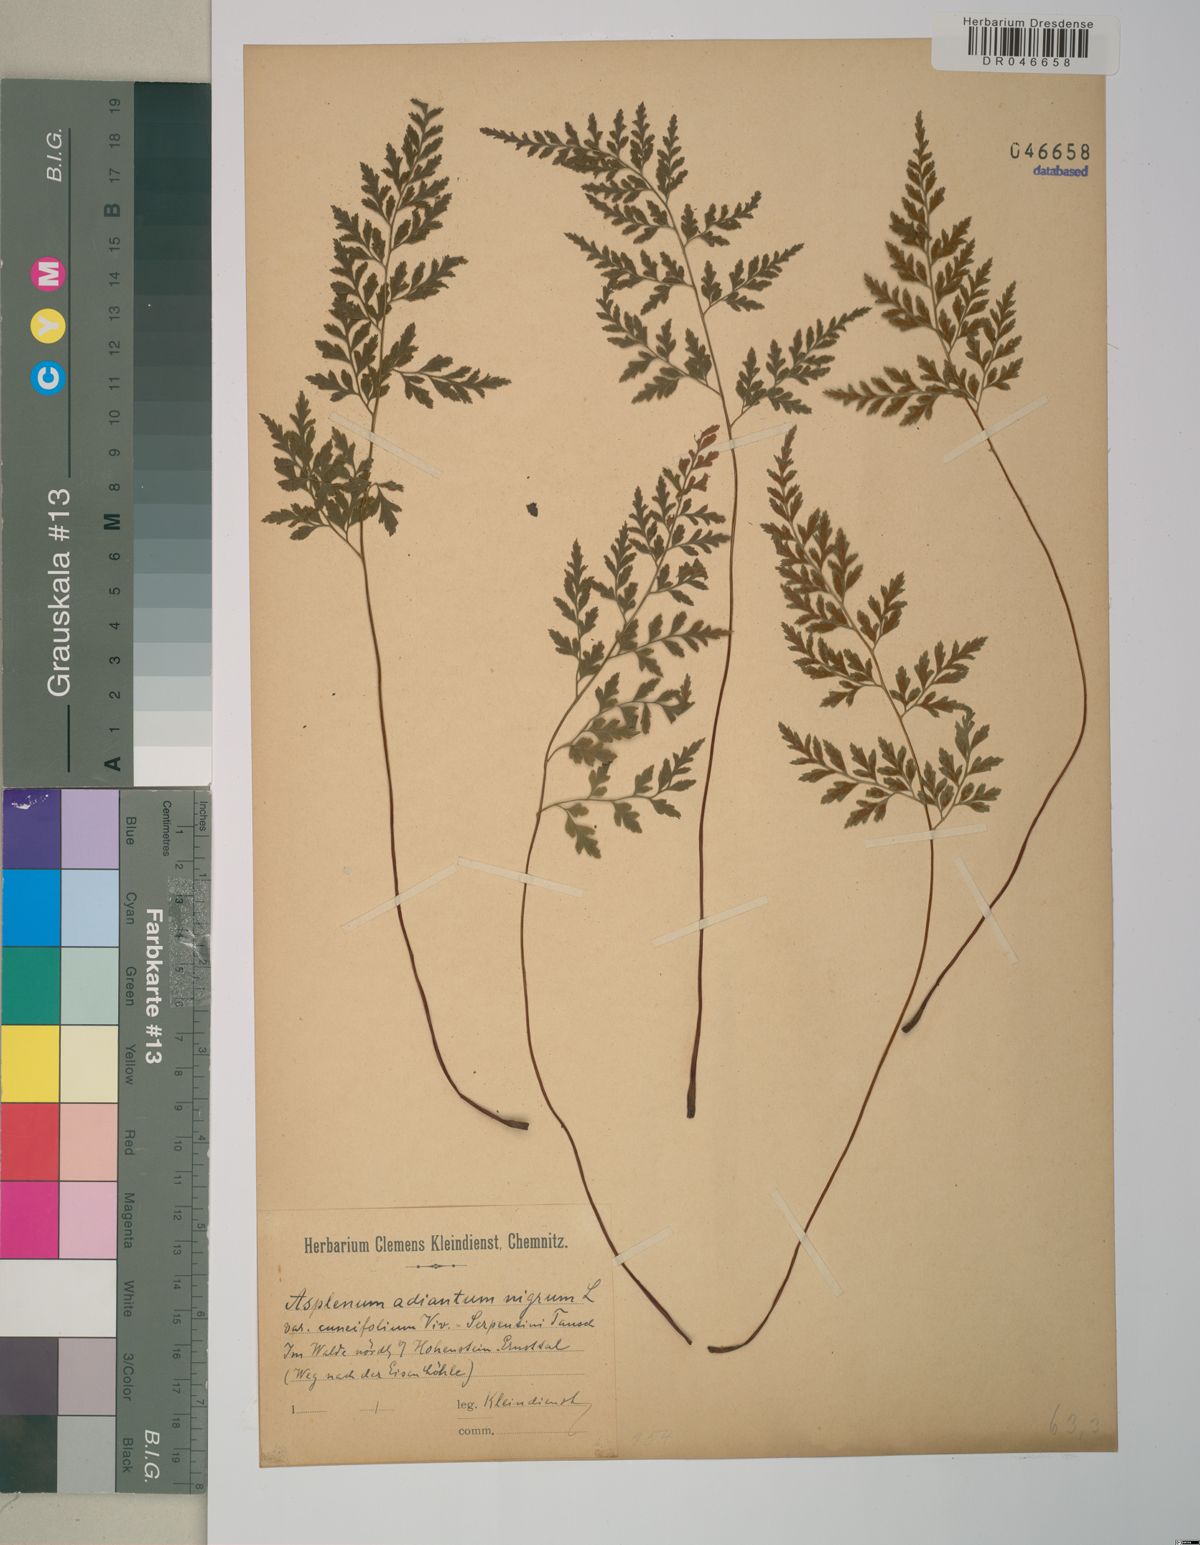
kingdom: Plantae
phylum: Tracheophyta
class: Polypodiopsida
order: Polypodiales
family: Aspleniaceae
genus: Asplenium
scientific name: Asplenium adiantum-nigrum
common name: Black spleenwort
